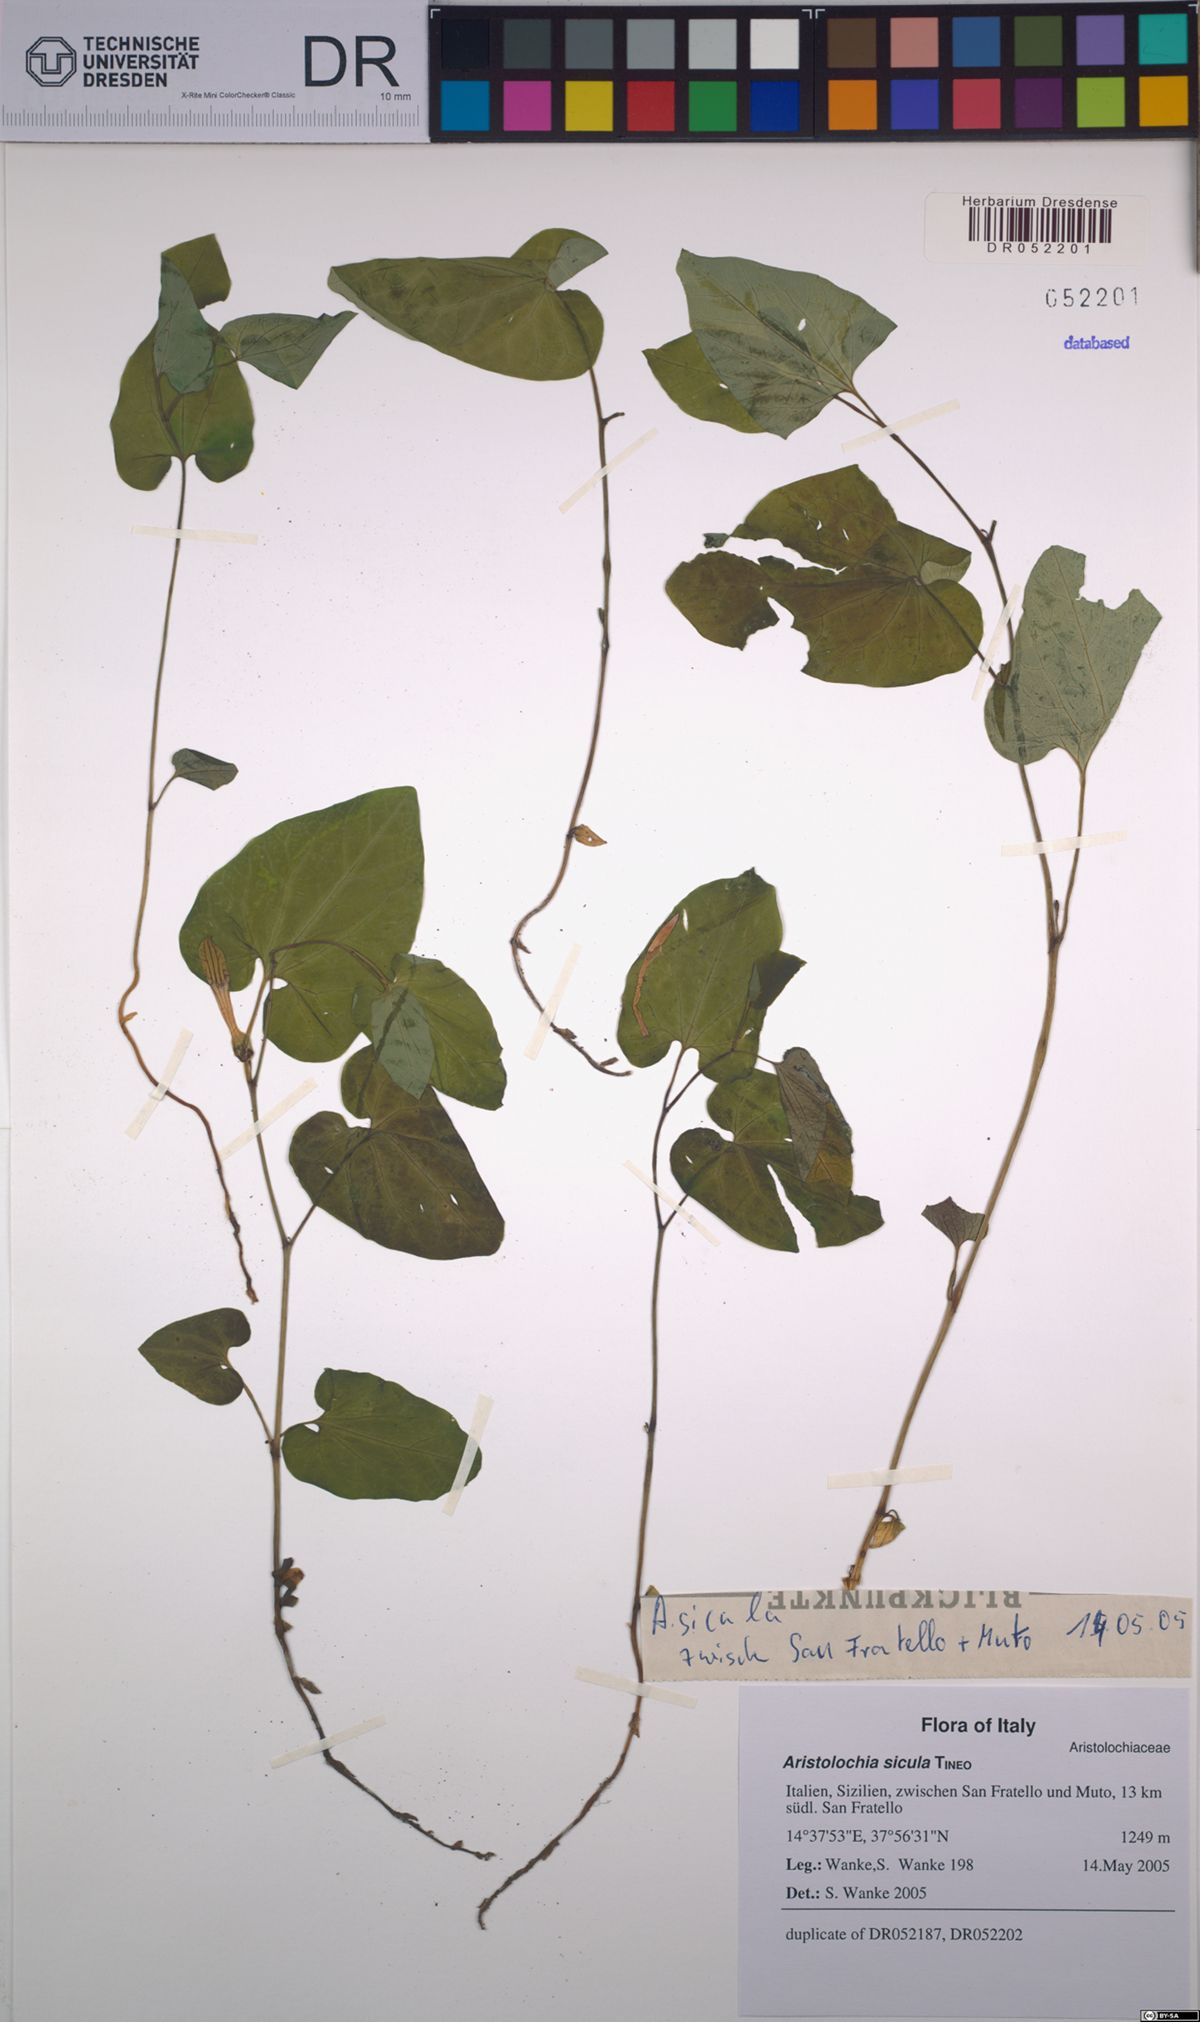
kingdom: Plantae
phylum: Tracheophyta
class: Magnoliopsida
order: Piperales
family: Aristolochiaceae
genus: Aristolochia
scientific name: Aristolochia sicula
